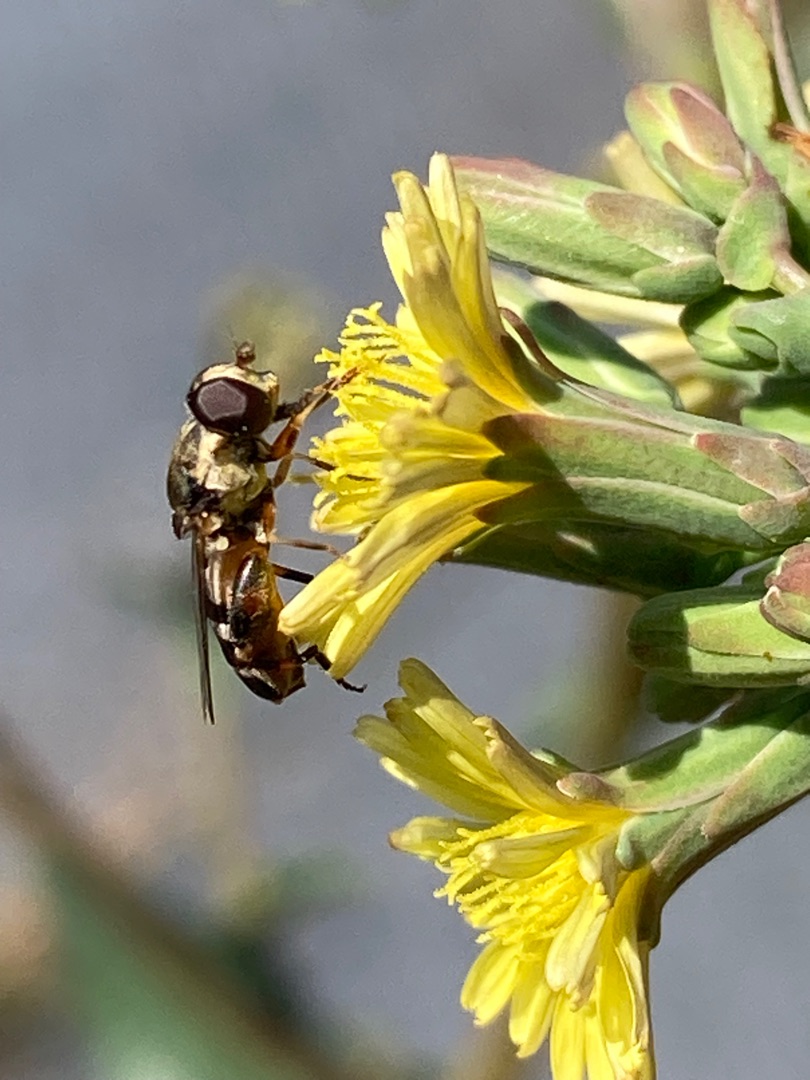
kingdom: Animalia
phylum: Arthropoda
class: Insecta
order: Diptera
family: Syrphidae
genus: Syritta
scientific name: Syritta pipiens
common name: Kompost-svirreflue
